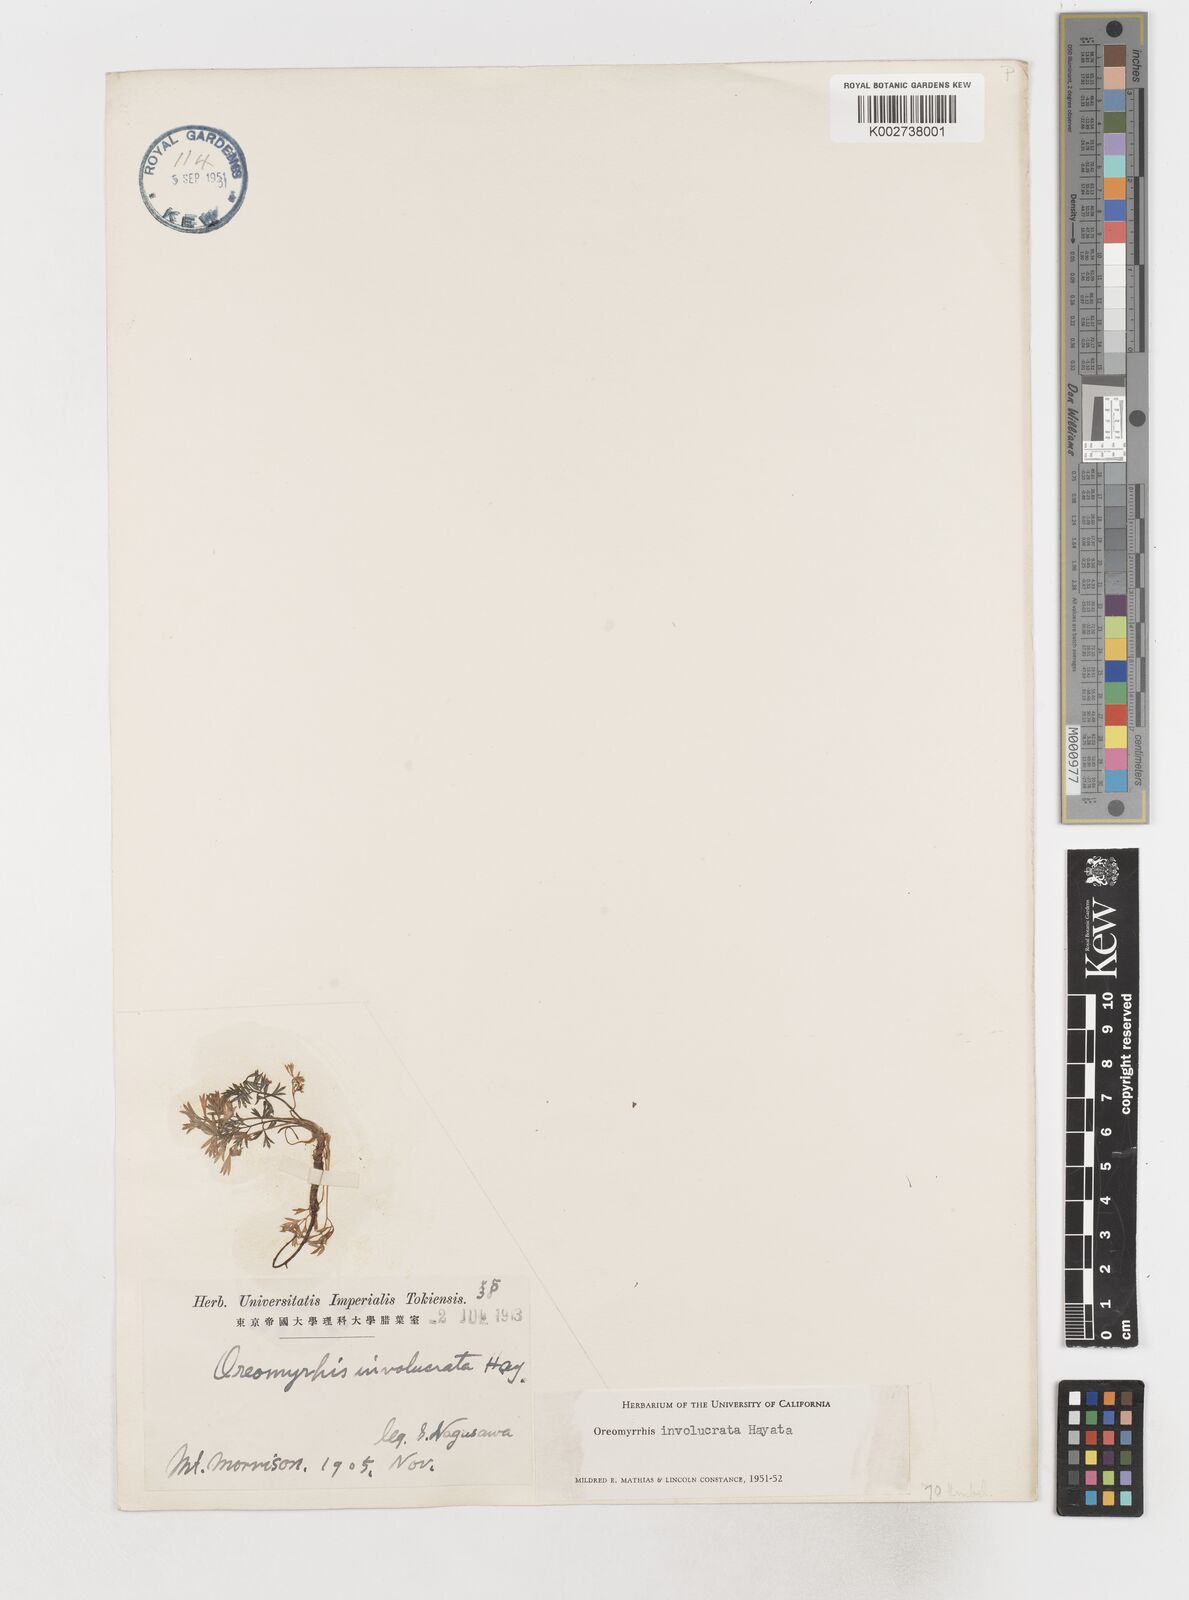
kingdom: Plantae
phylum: Tracheophyta
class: Magnoliopsida
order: Apiales
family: Apiaceae
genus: Chaerophyllum
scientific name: Chaerophyllum involucratum
